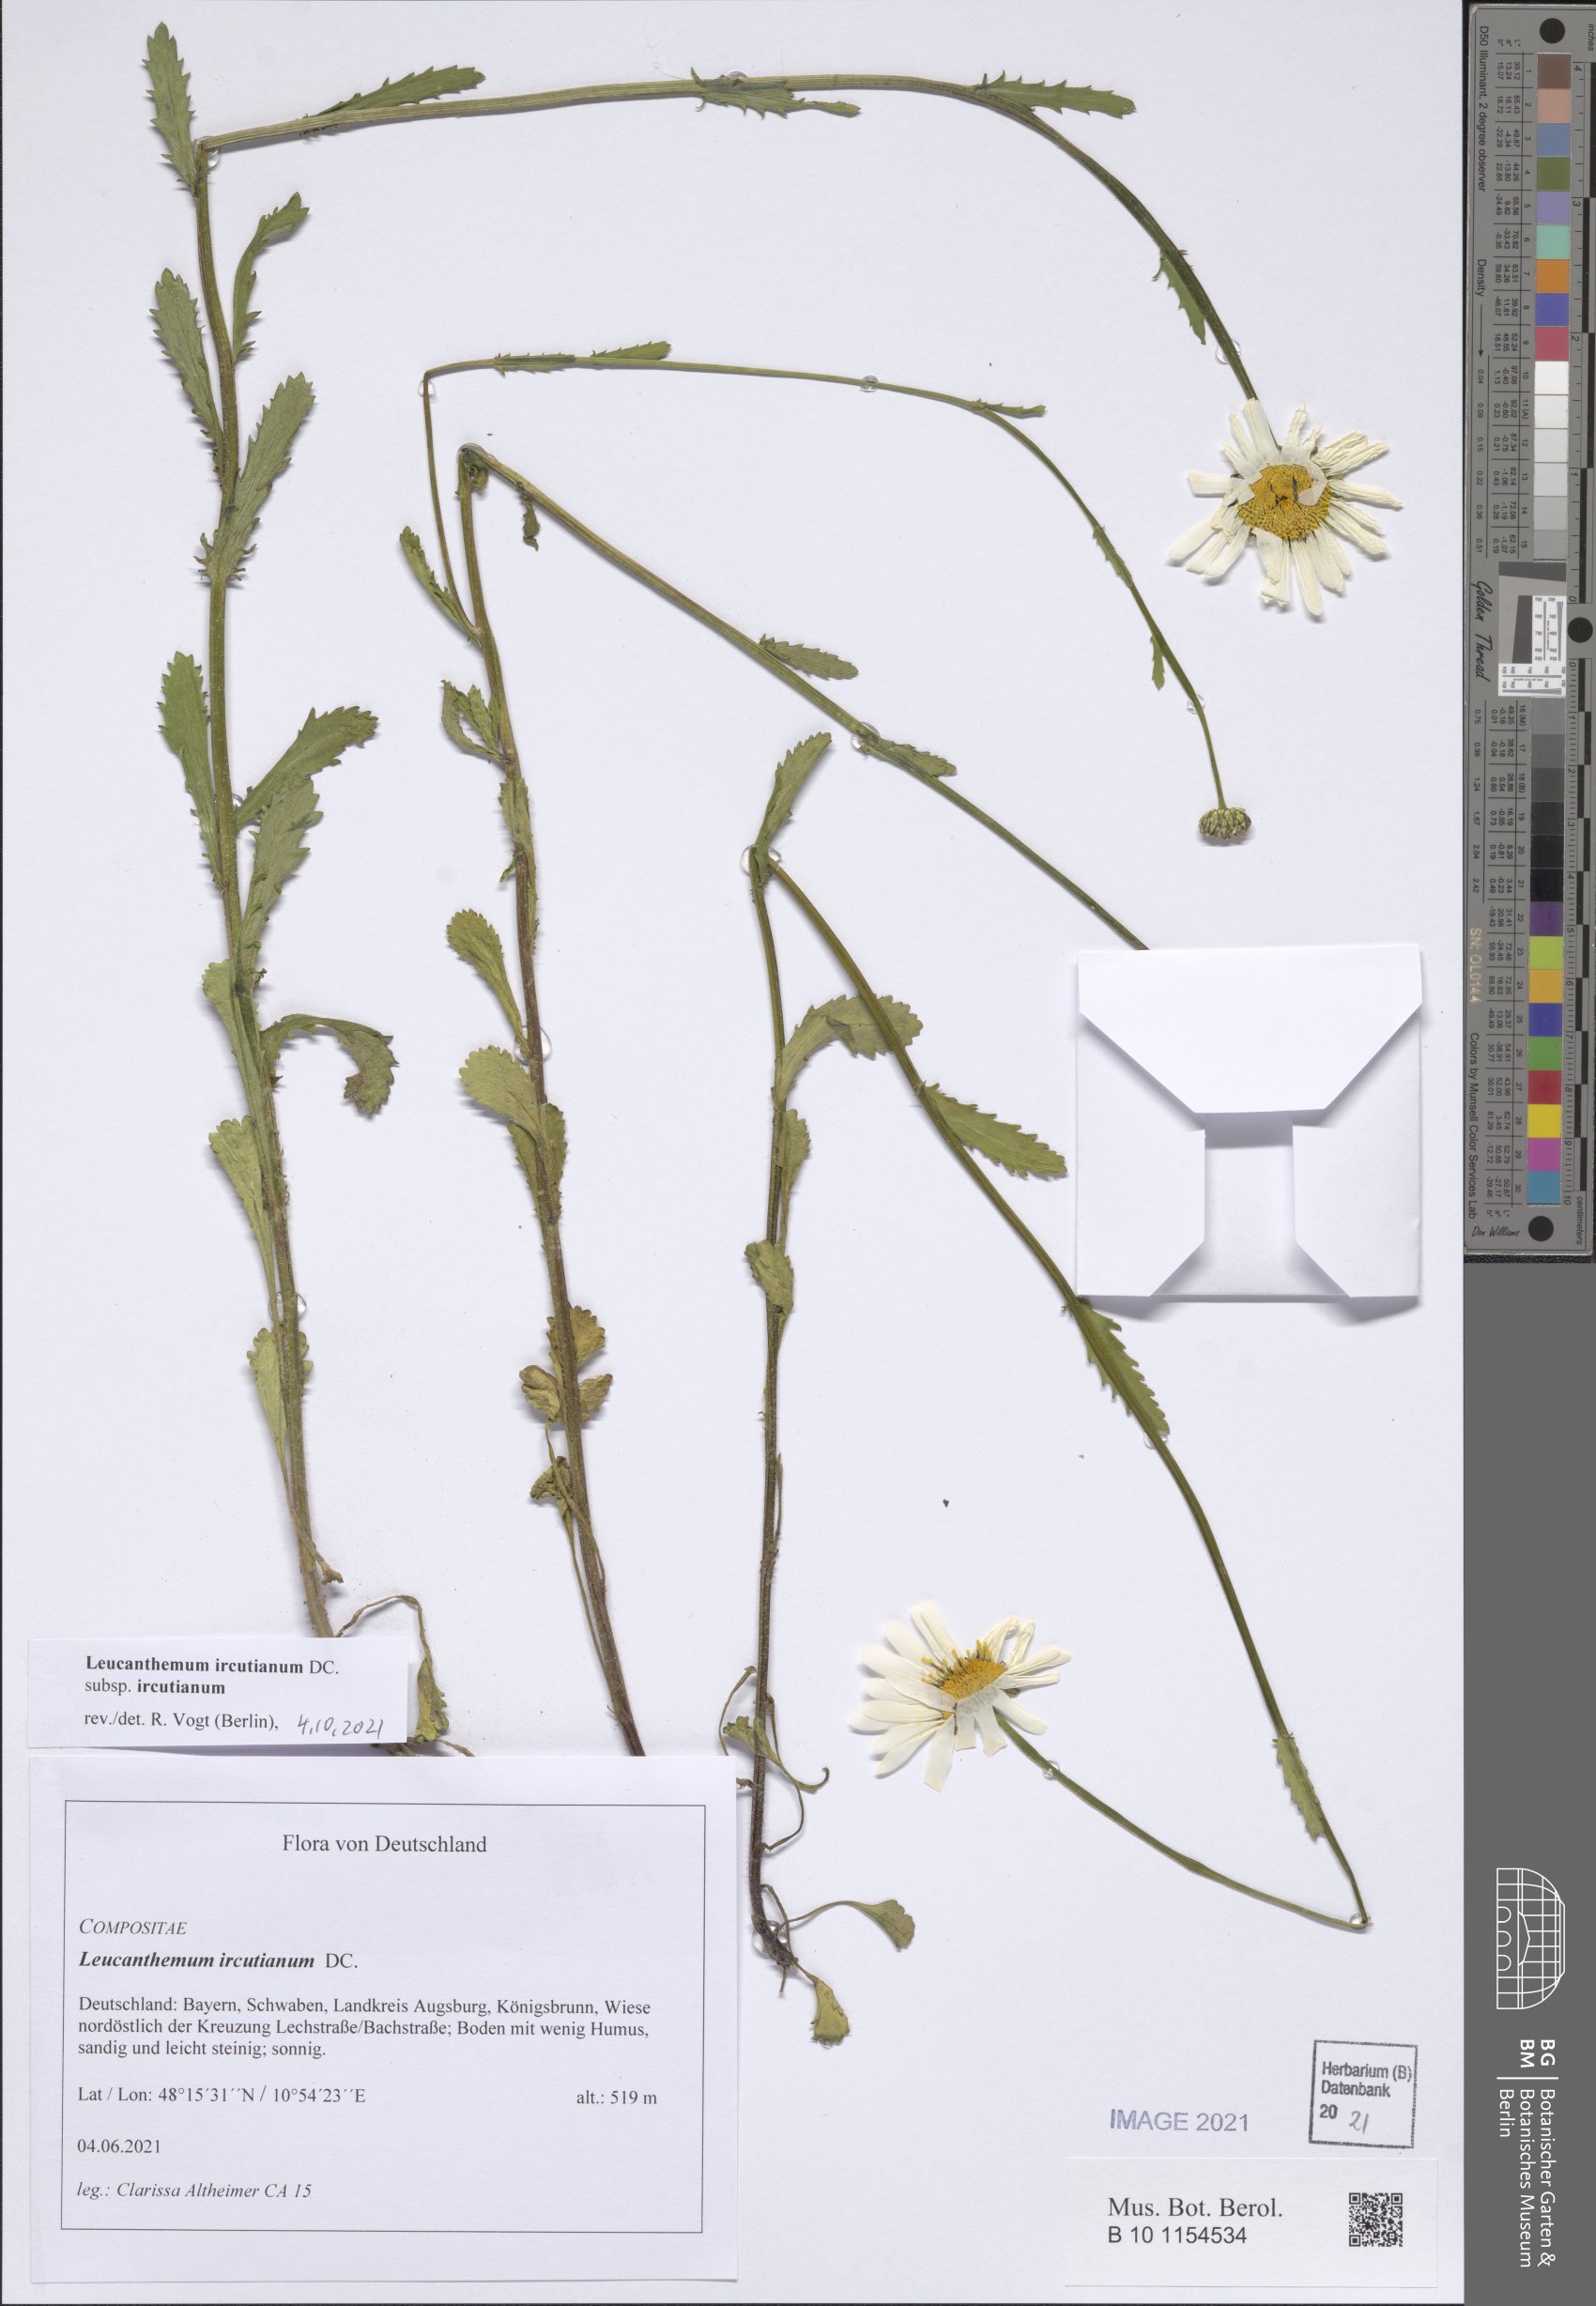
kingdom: Plantae
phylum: Tracheophyta
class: Magnoliopsida
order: Asterales
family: Asteraceae
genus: Leucanthemum
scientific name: Leucanthemum ircutianum
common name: Daisy
